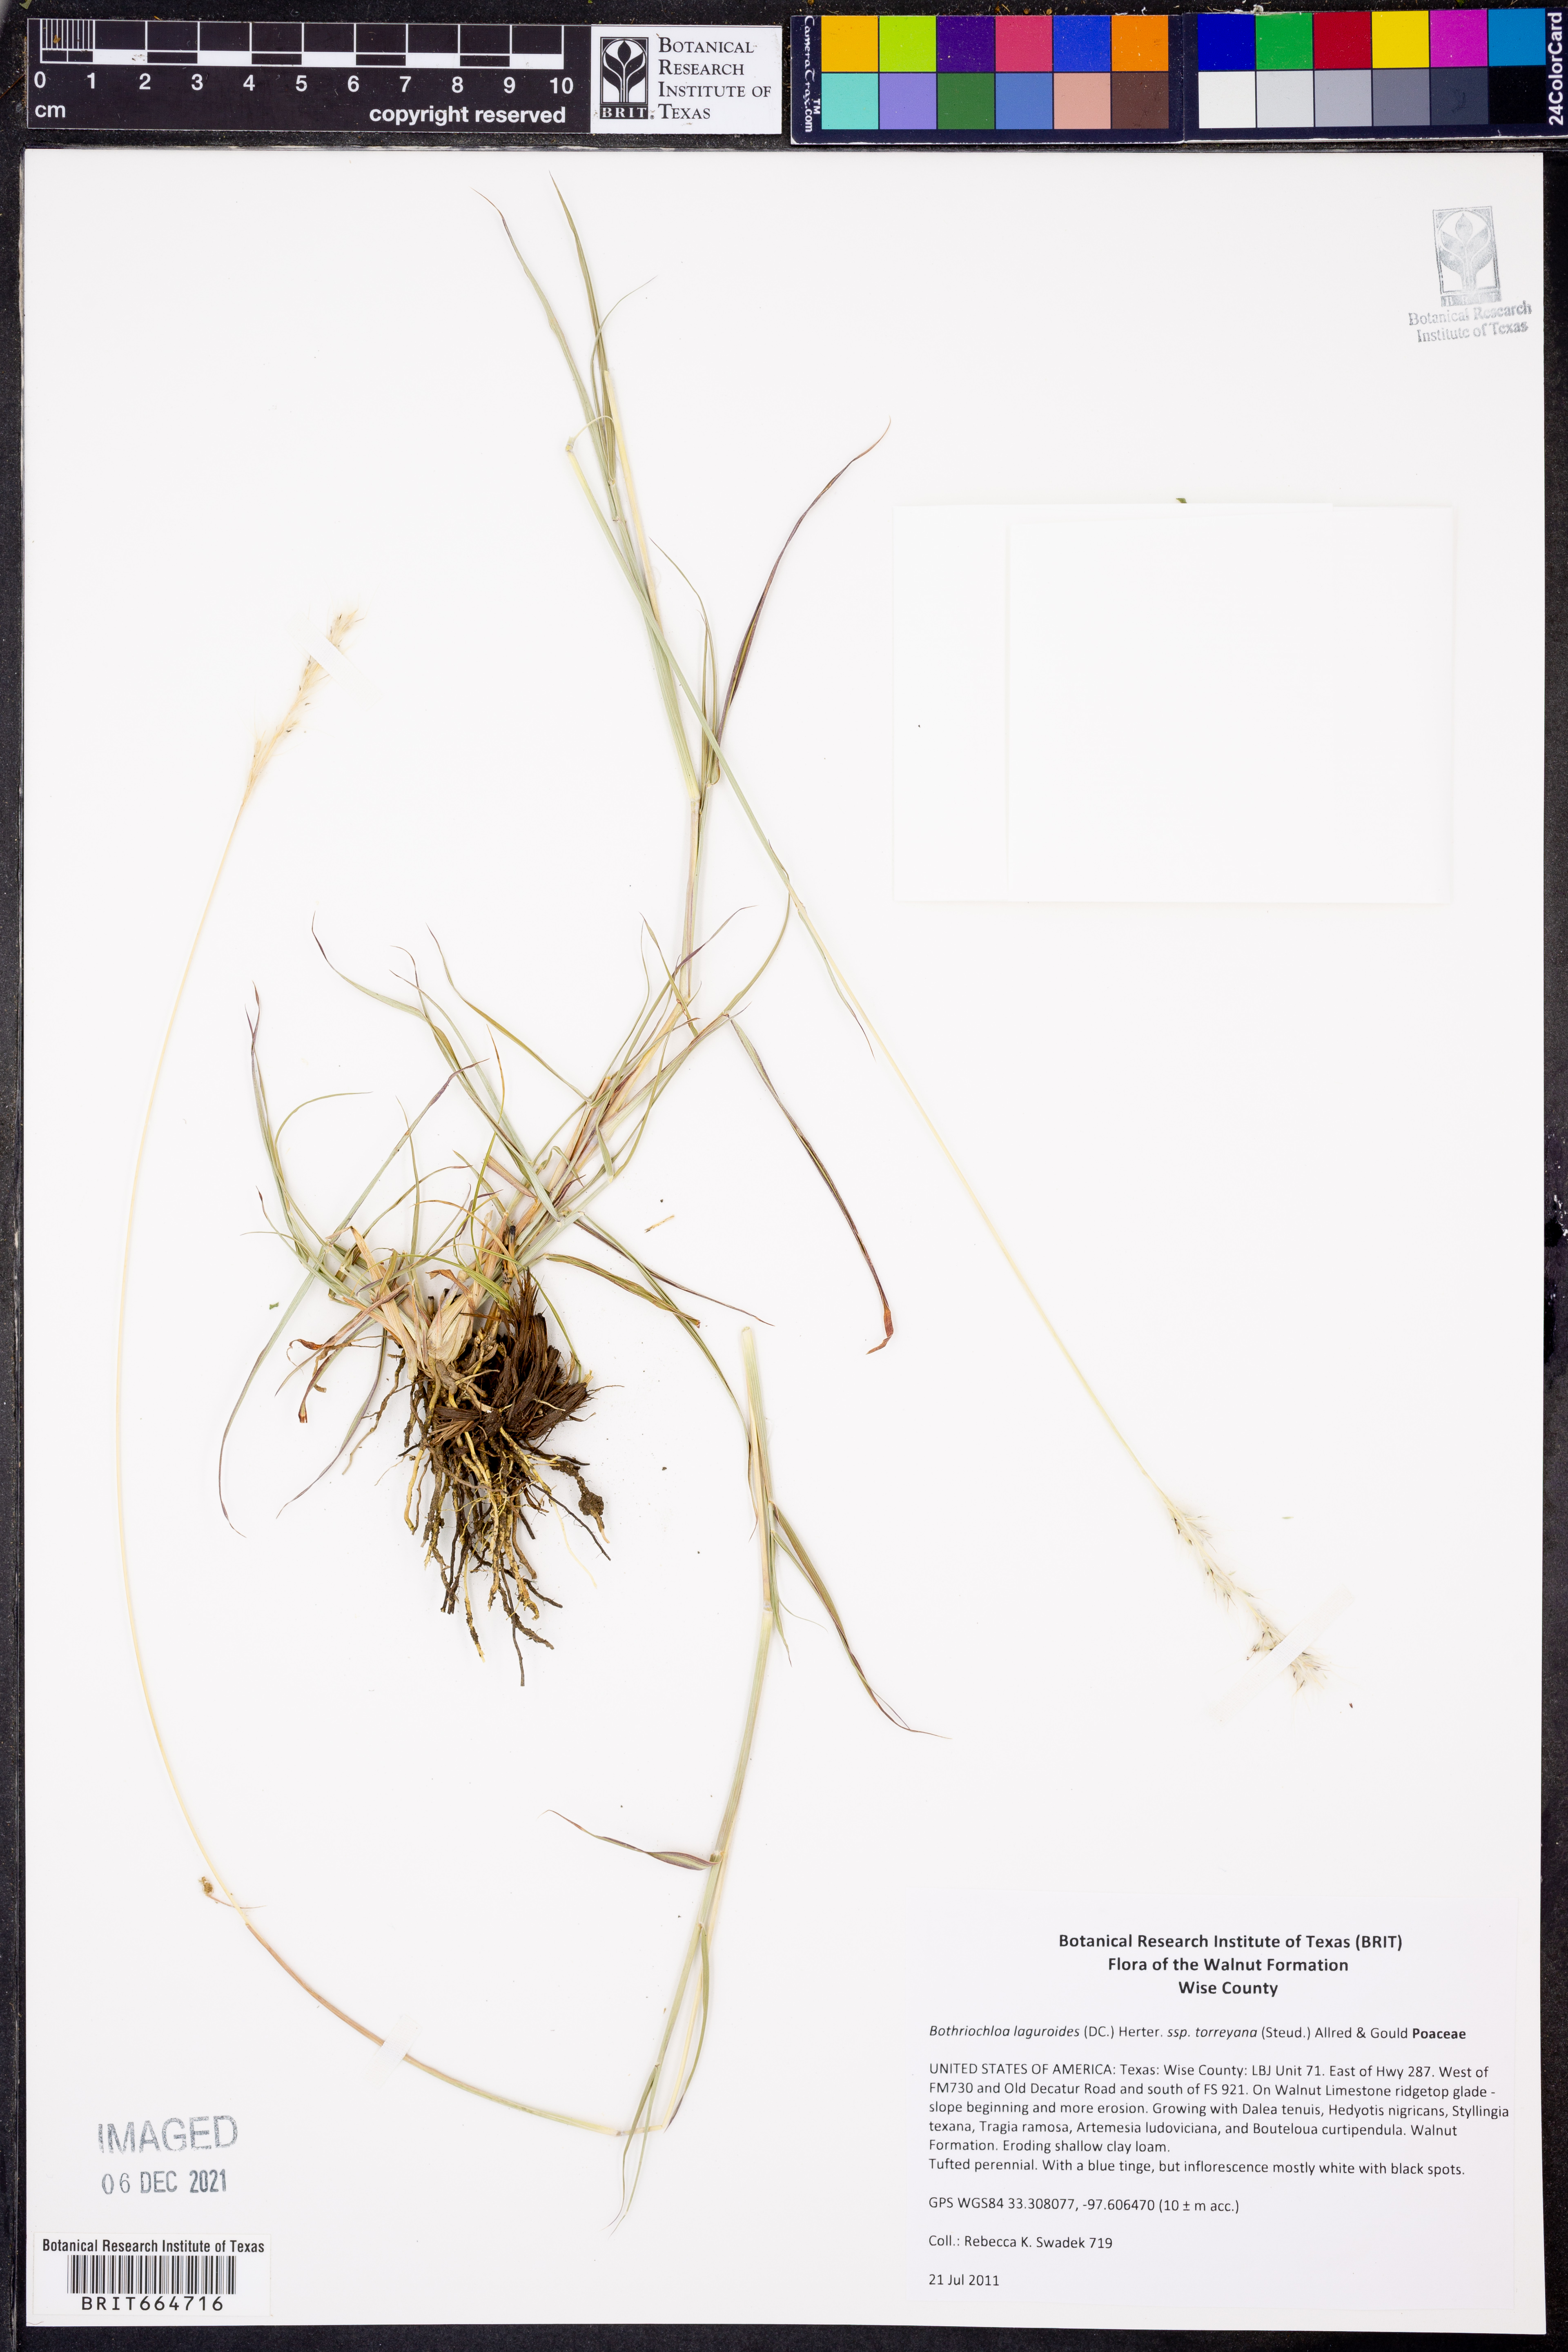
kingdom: Plantae
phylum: Tracheophyta
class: Liliopsida
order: Poales
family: Poaceae
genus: Bothriochloa
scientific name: Bothriochloa torreyana
